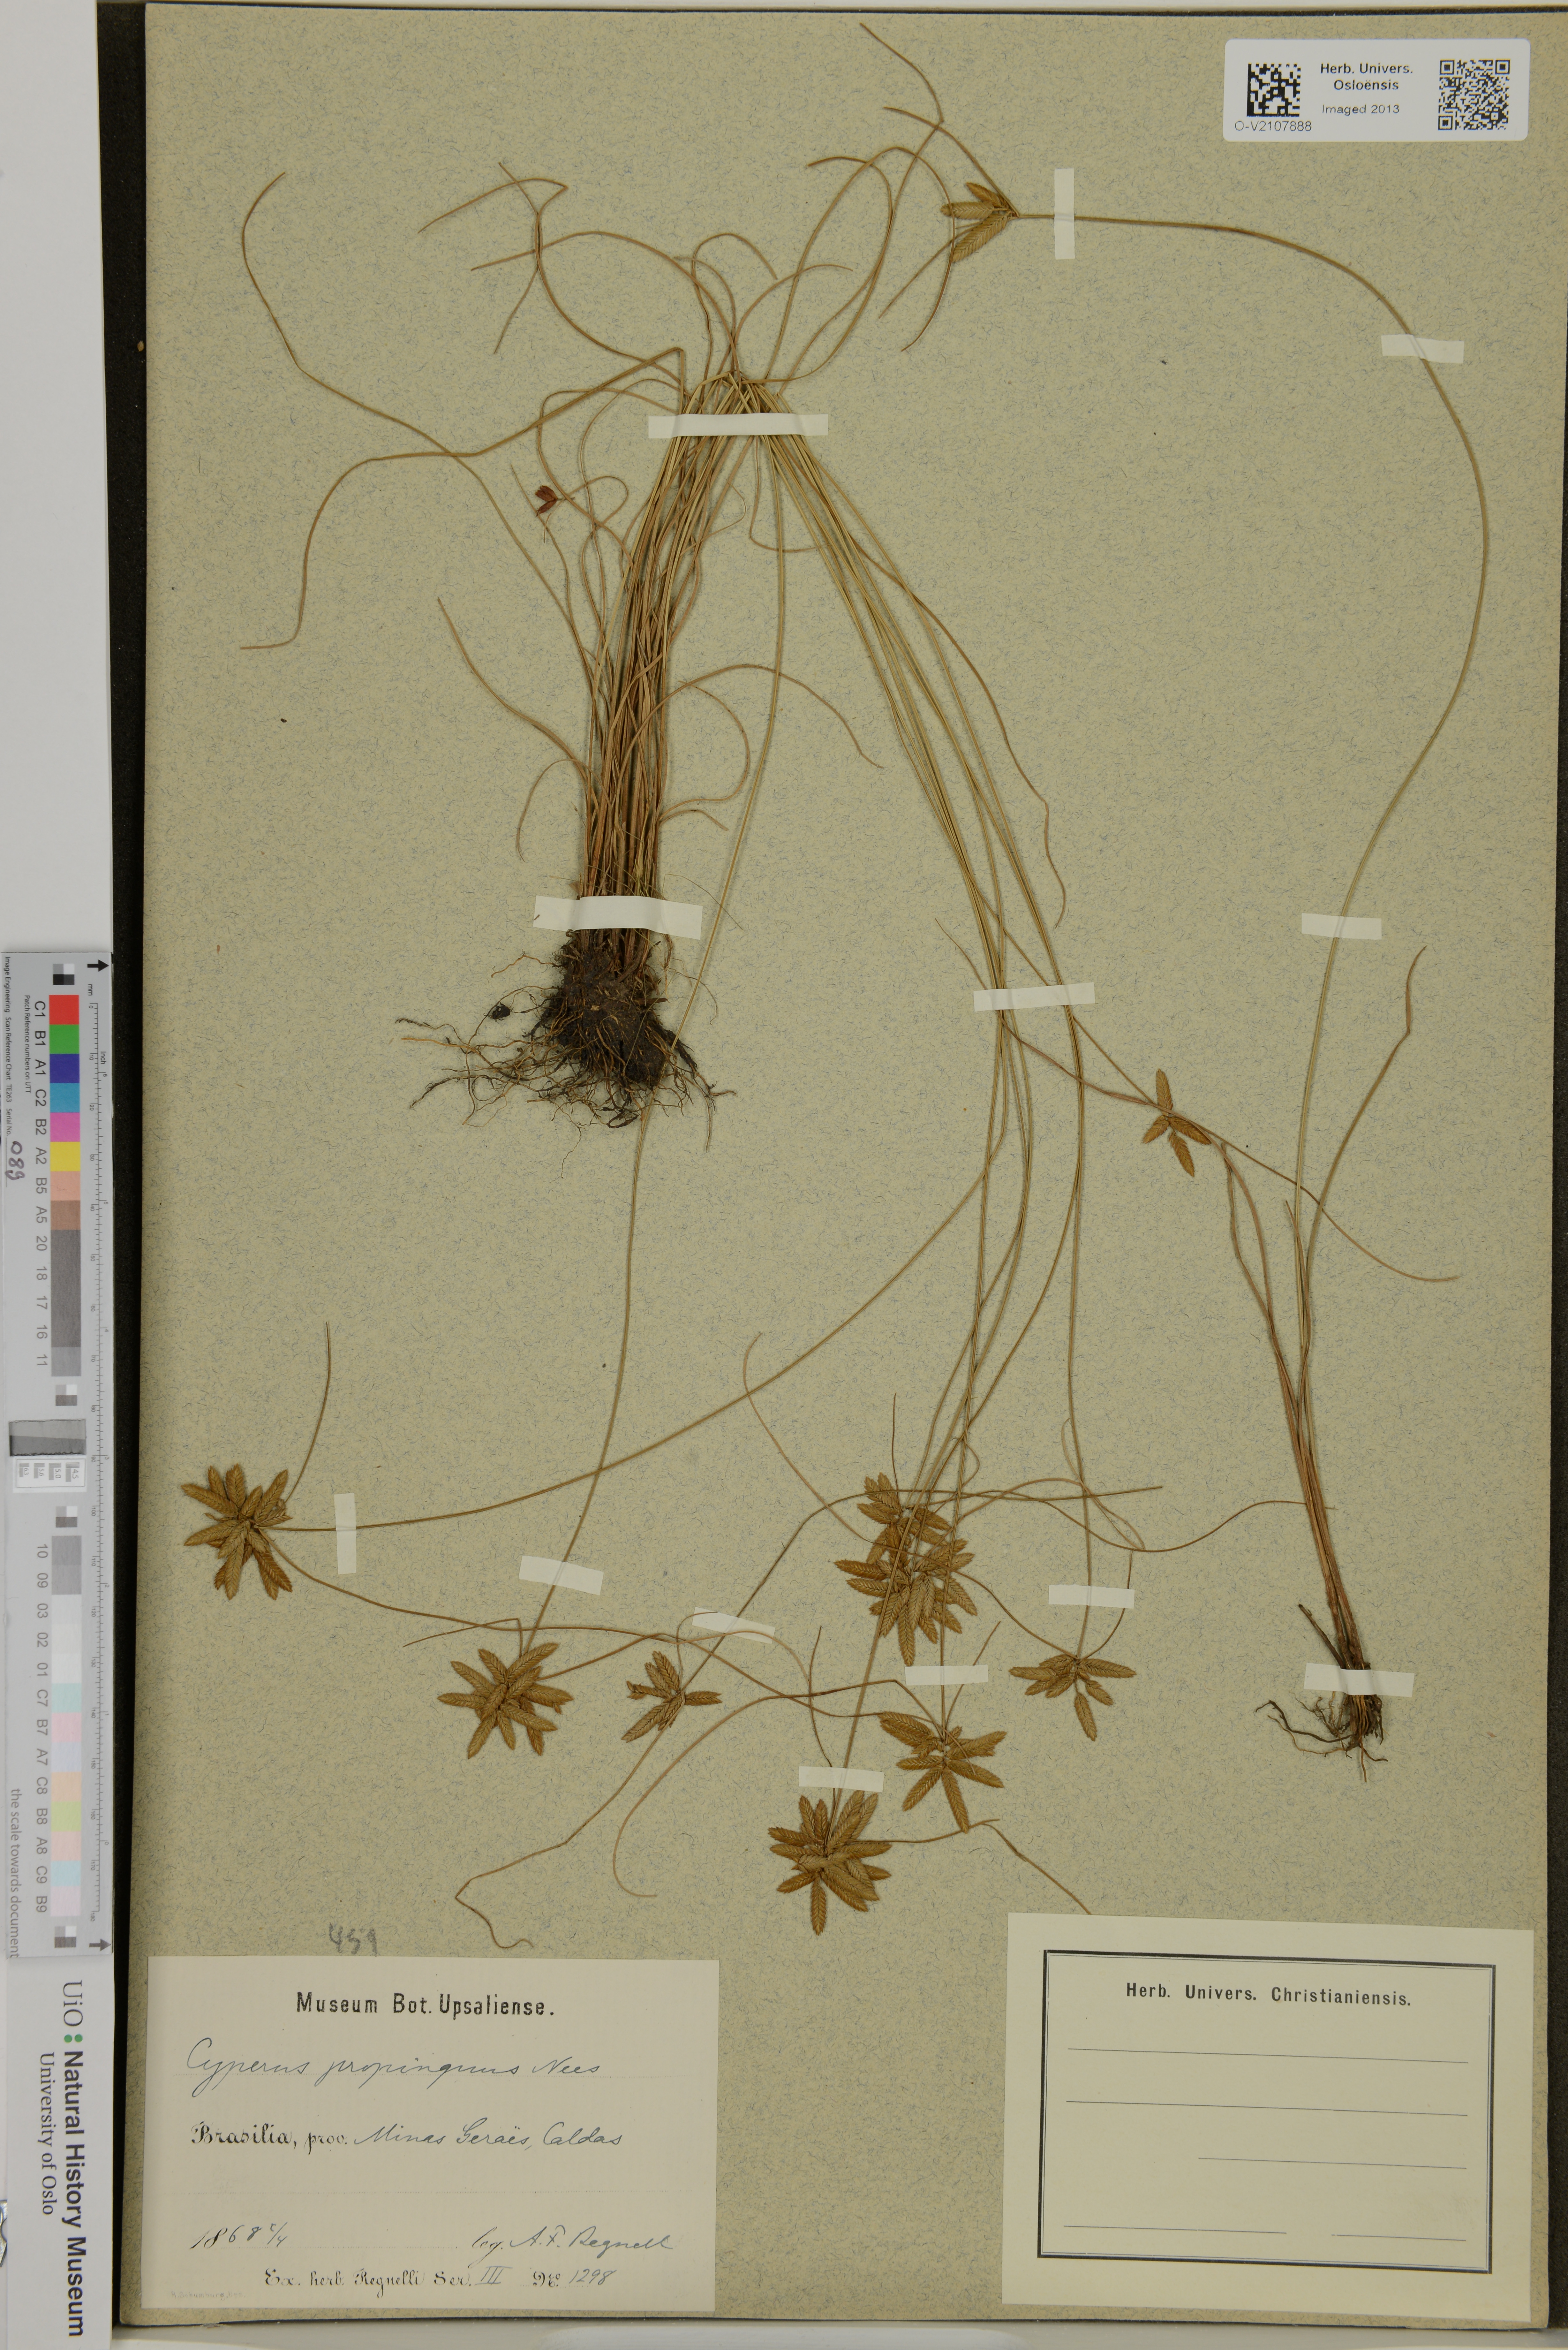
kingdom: Plantae
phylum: Tracheophyta
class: Liliopsida
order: Poales
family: Cyperaceae
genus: Cyperus
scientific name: Cyperus propinguus
